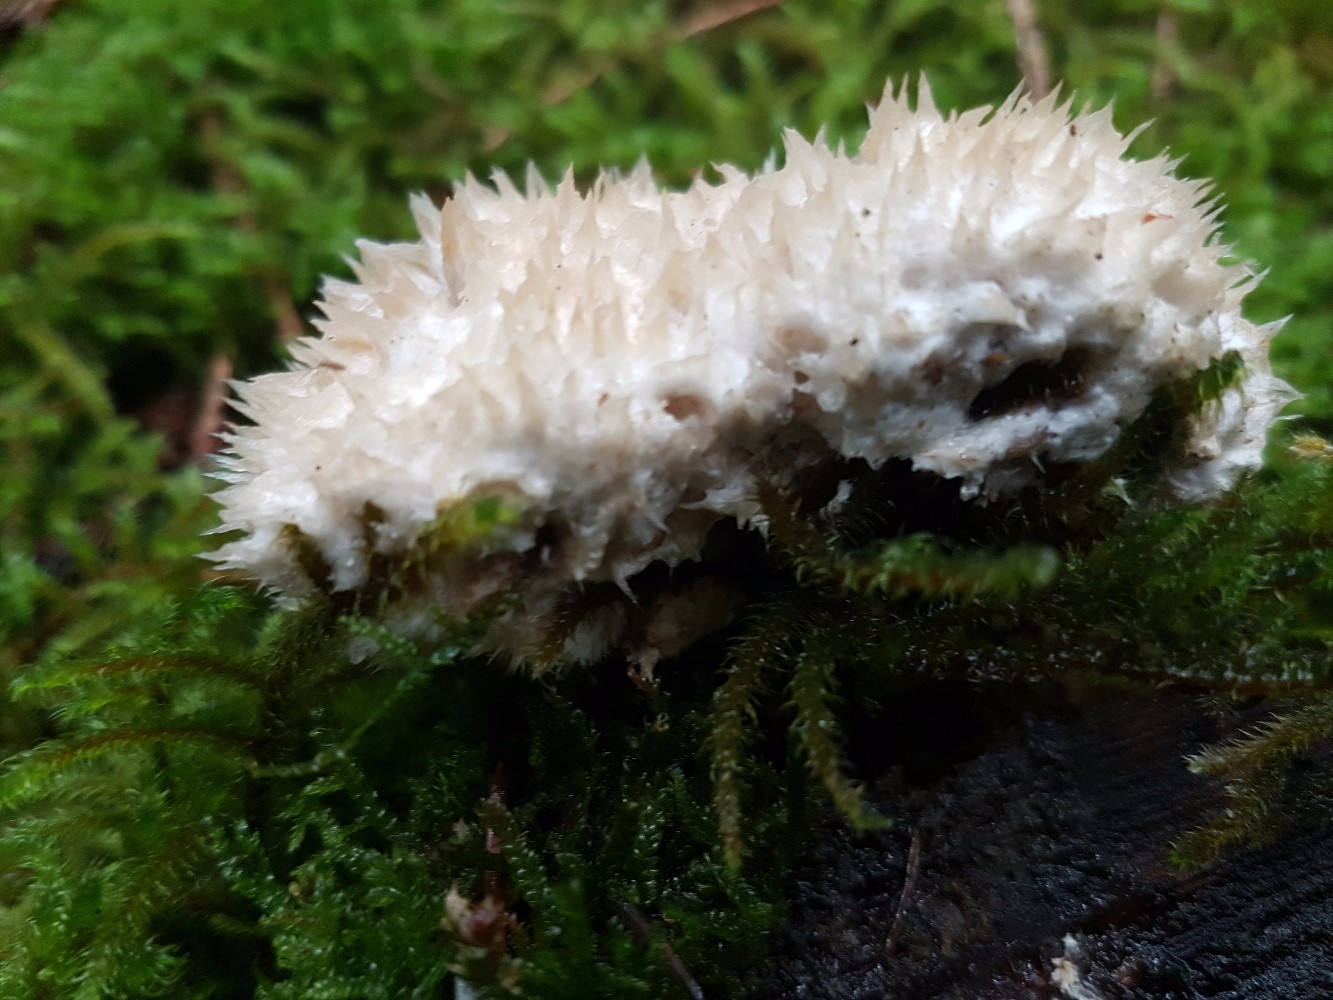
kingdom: Fungi
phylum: Basidiomycota
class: Agaricomycetes
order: Polyporales
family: Dacryobolaceae
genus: Postia
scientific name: Postia ptychogaster
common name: støvende kødporesvamp
